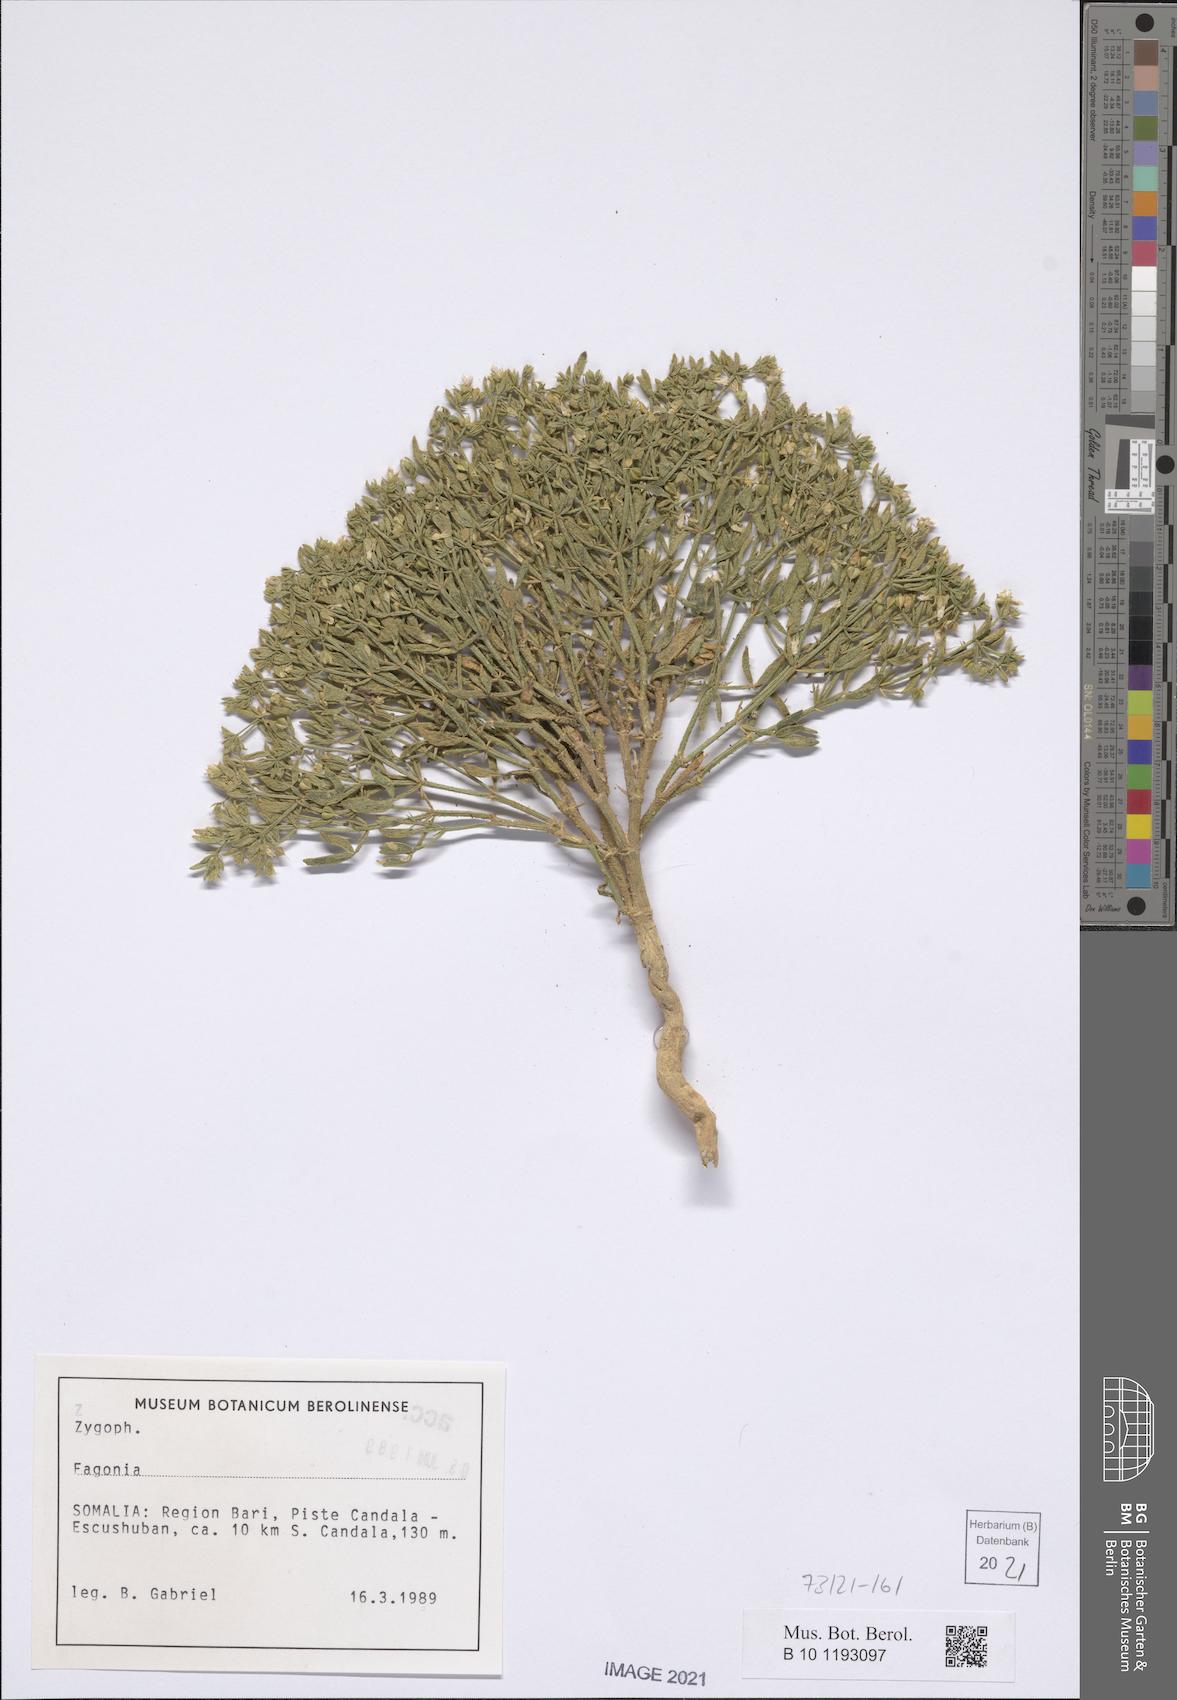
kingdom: Plantae
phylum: Tracheophyta
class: Magnoliopsida
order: Zygophyllales
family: Zygophyllaceae
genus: Fagonia
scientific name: Fagonia
